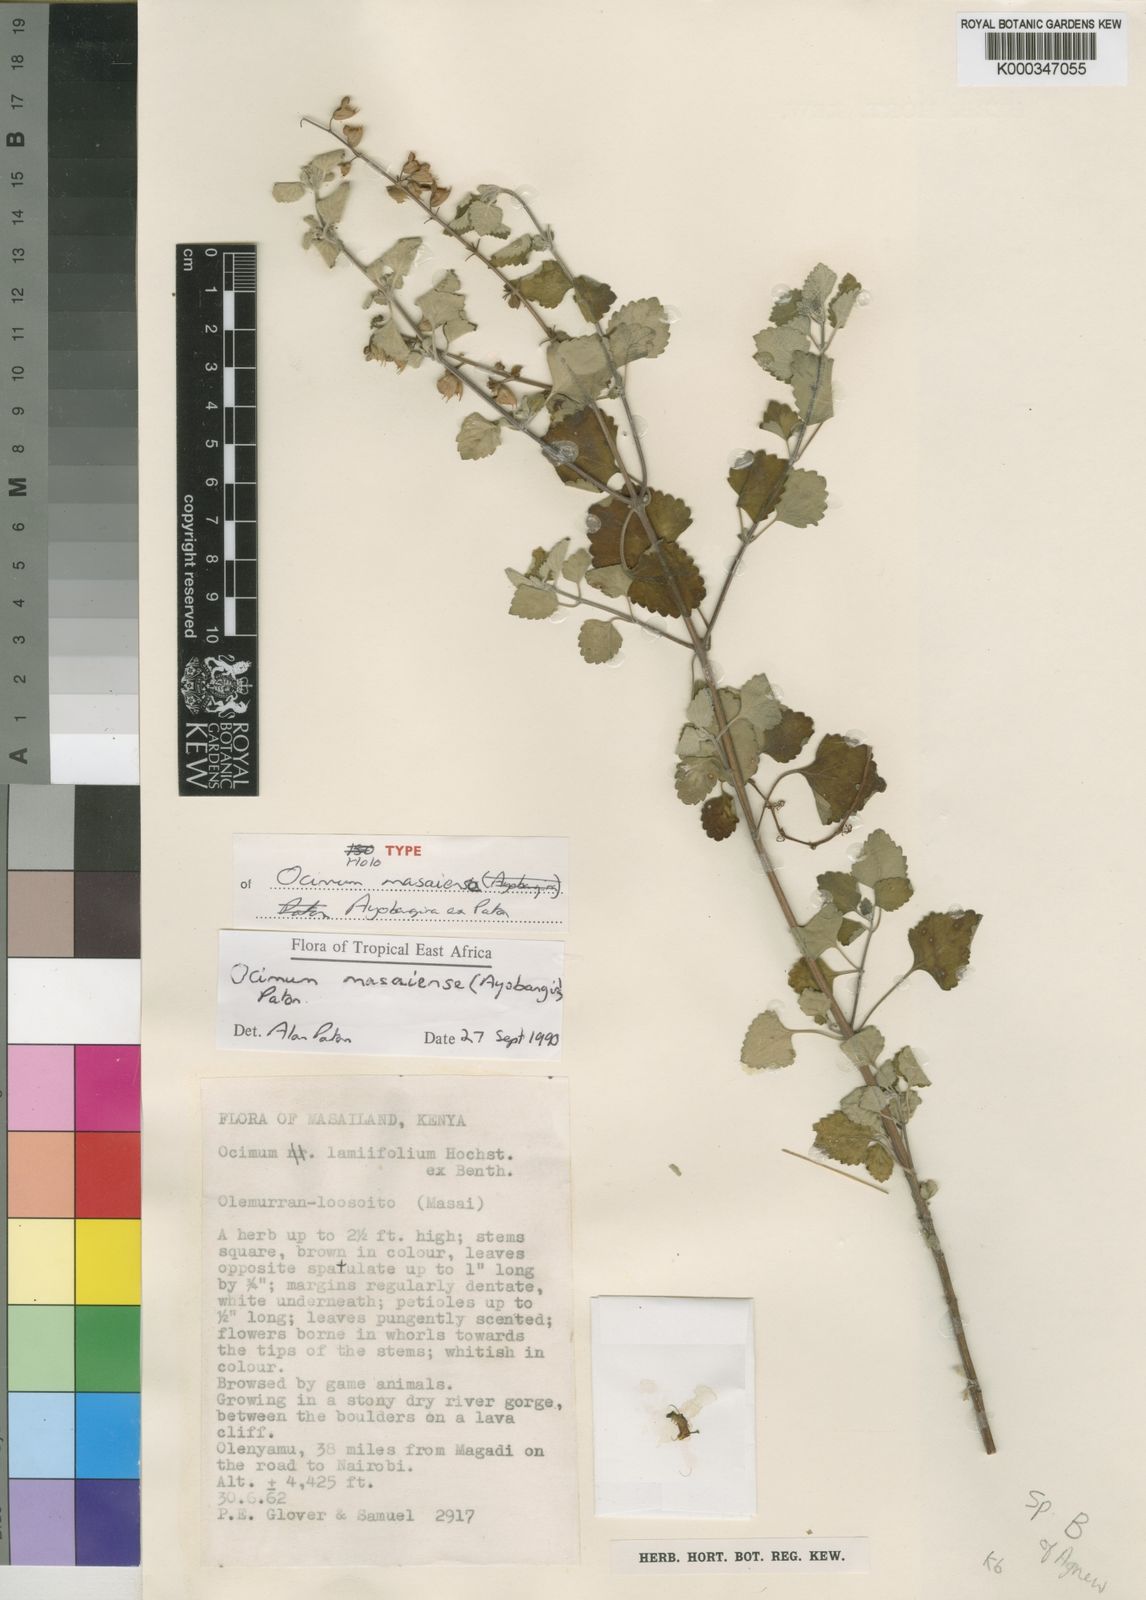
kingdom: Plantae
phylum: Tracheophyta
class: Magnoliopsida
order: Lamiales
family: Lamiaceae
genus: Ocimum
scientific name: Ocimum masaiense
